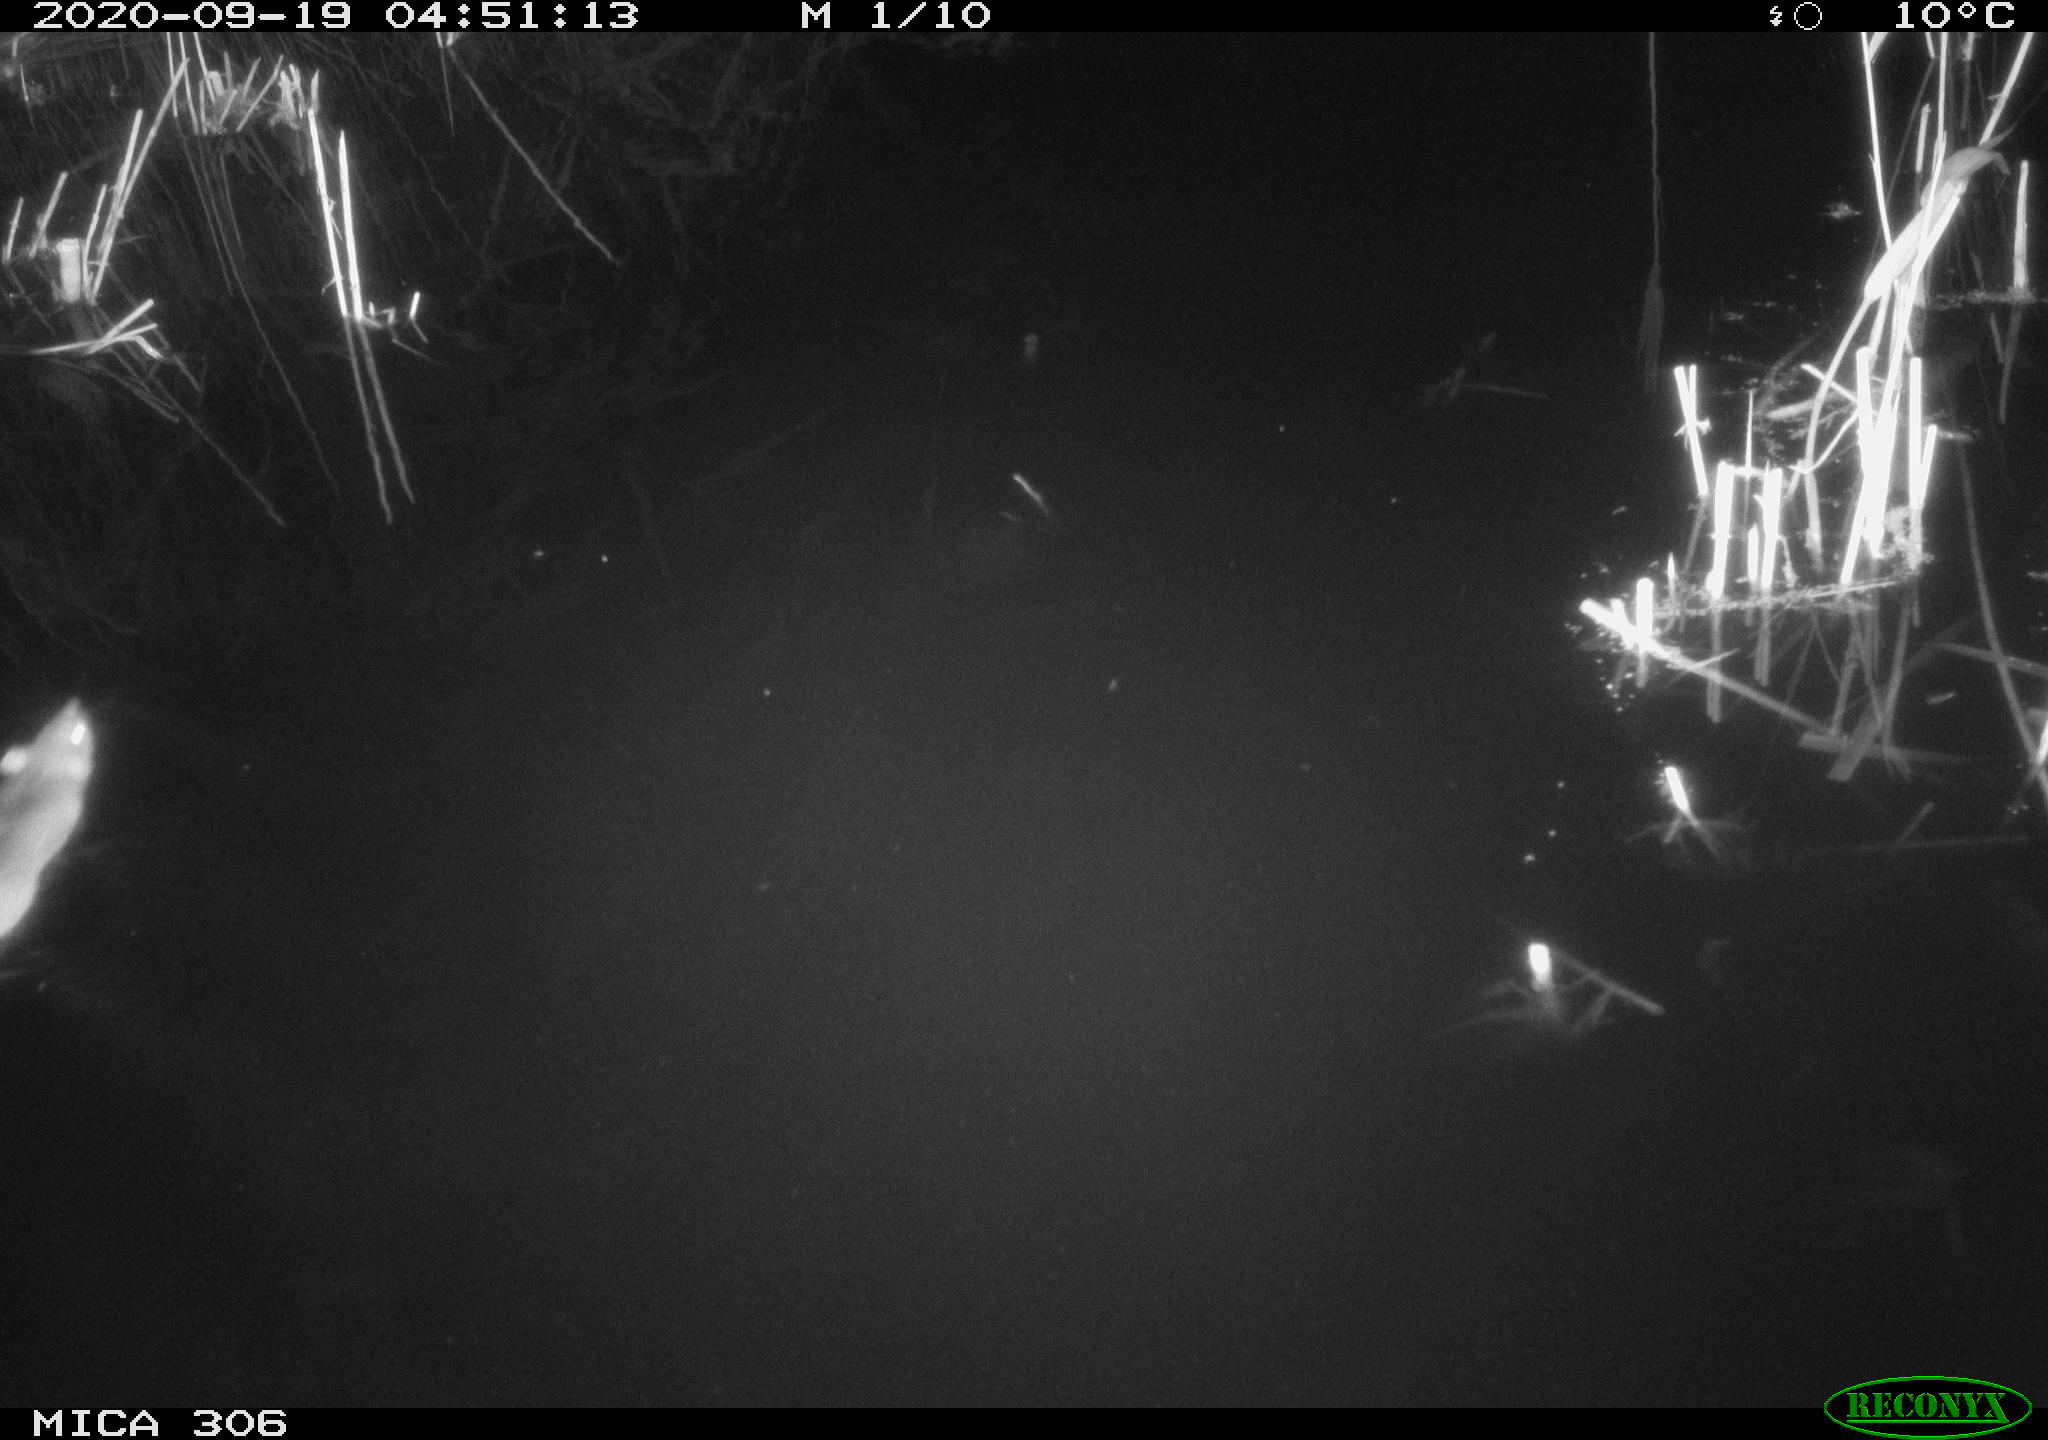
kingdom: Animalia
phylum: Chordata
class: Mammalia
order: Rodentia
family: Muridae
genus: Rattus
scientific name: Rattus norvegicus
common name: Brown rat
